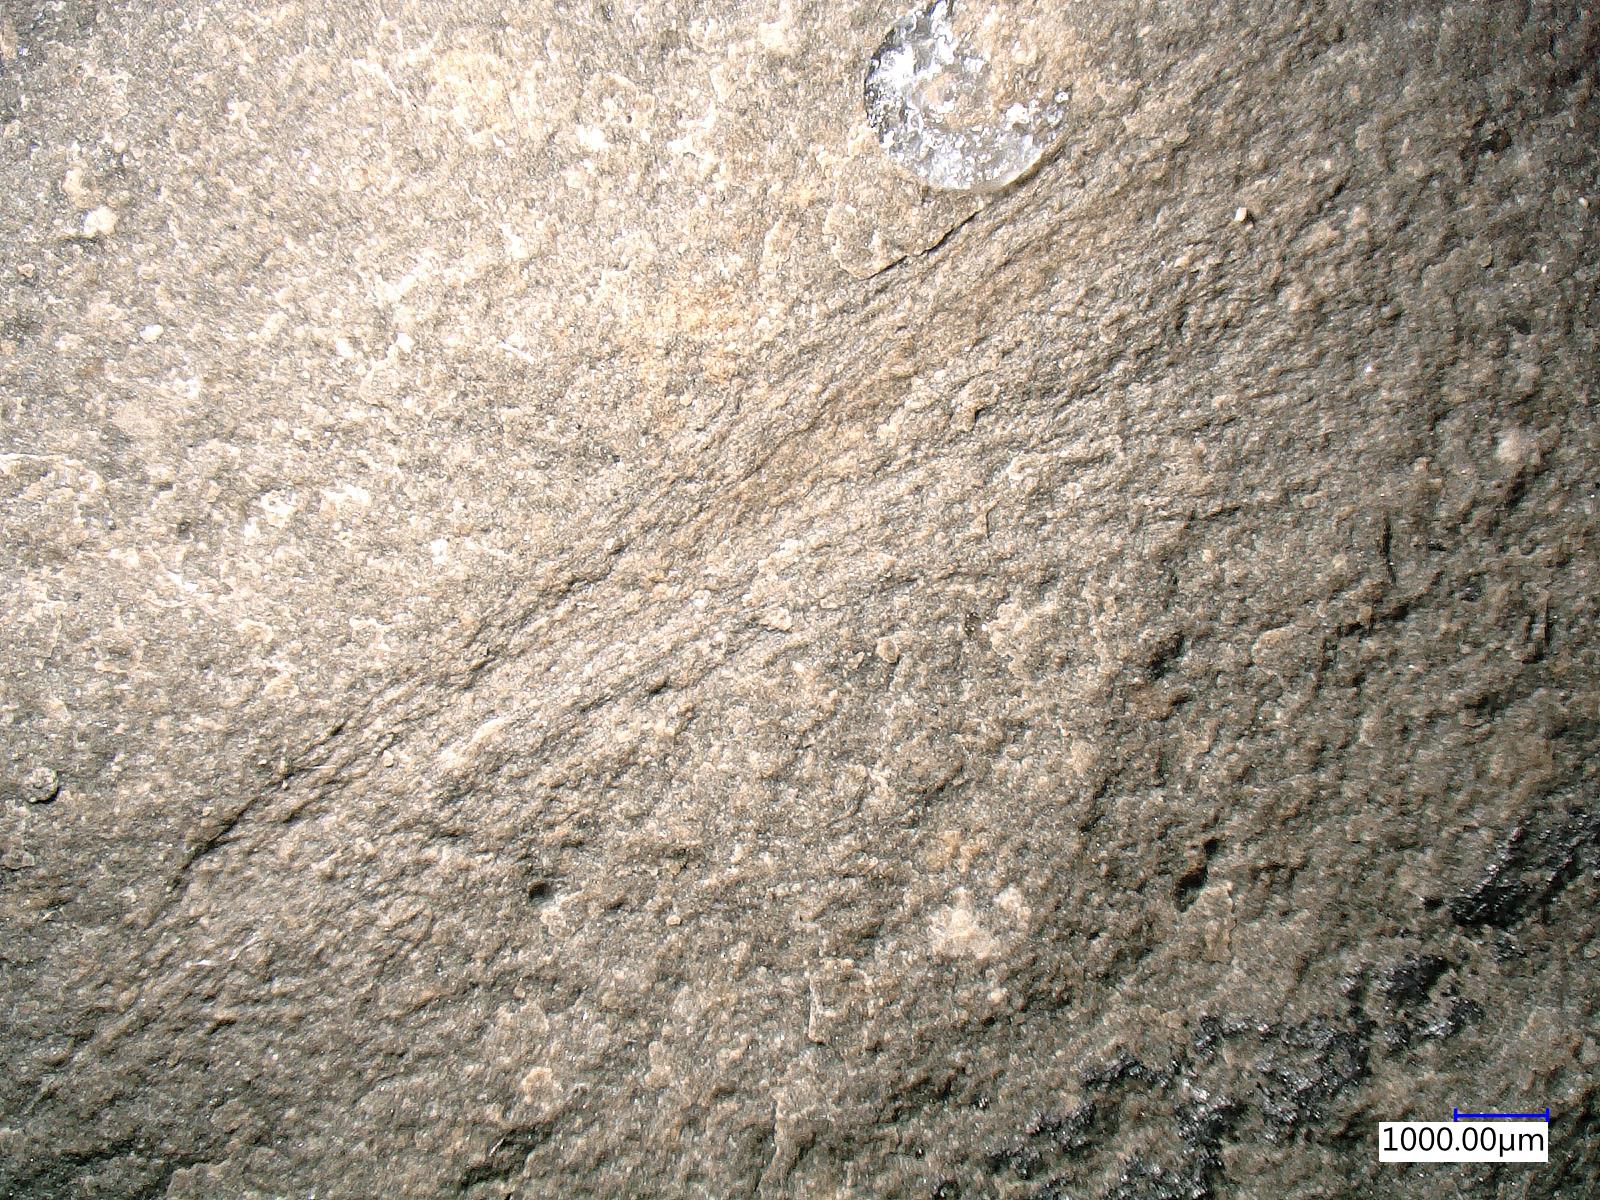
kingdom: Animalia
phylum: Arthropoda
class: Insecta
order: Odonata
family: Protomyrmeleontidae
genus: Protomyrmeleon
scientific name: Protomyrmeleon
